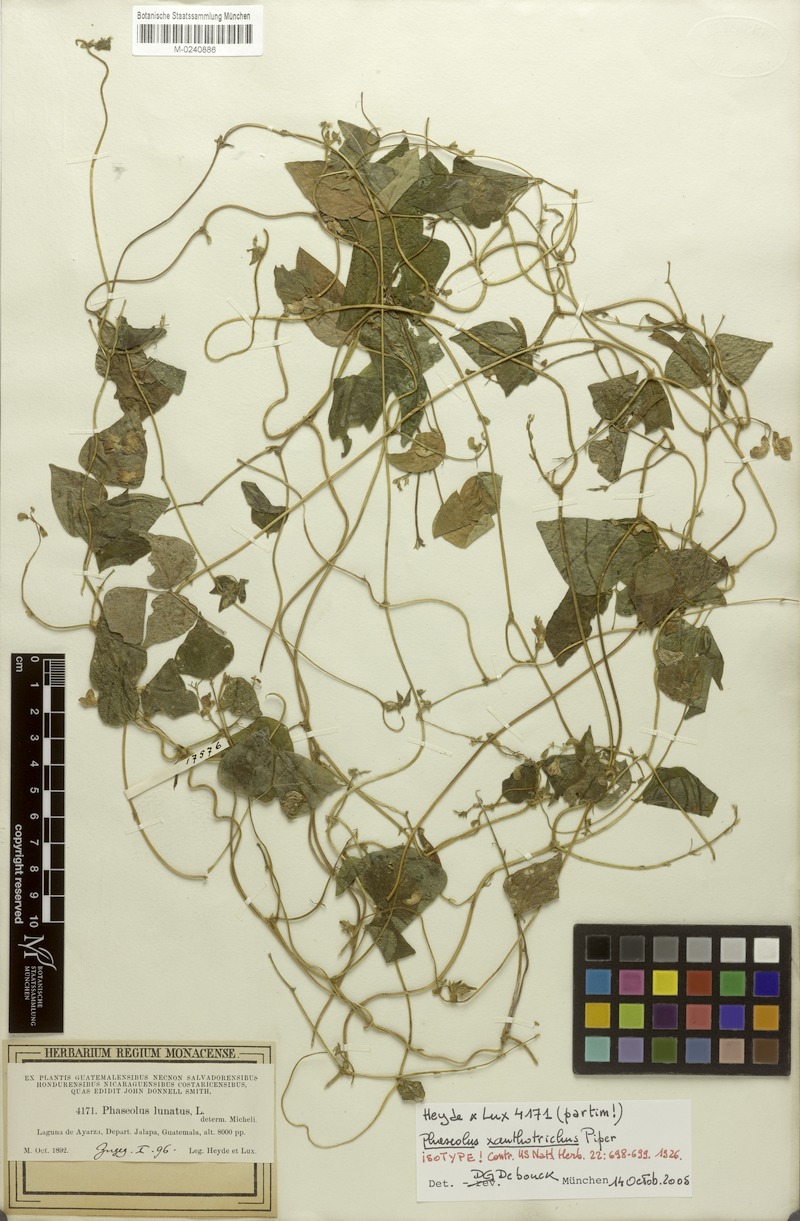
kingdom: Plantae
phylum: Tracheophyta
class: Magnoliopsida
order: Fabales
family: Fabaceae
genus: Phaseolus
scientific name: Phaseolus xanthotrichus
